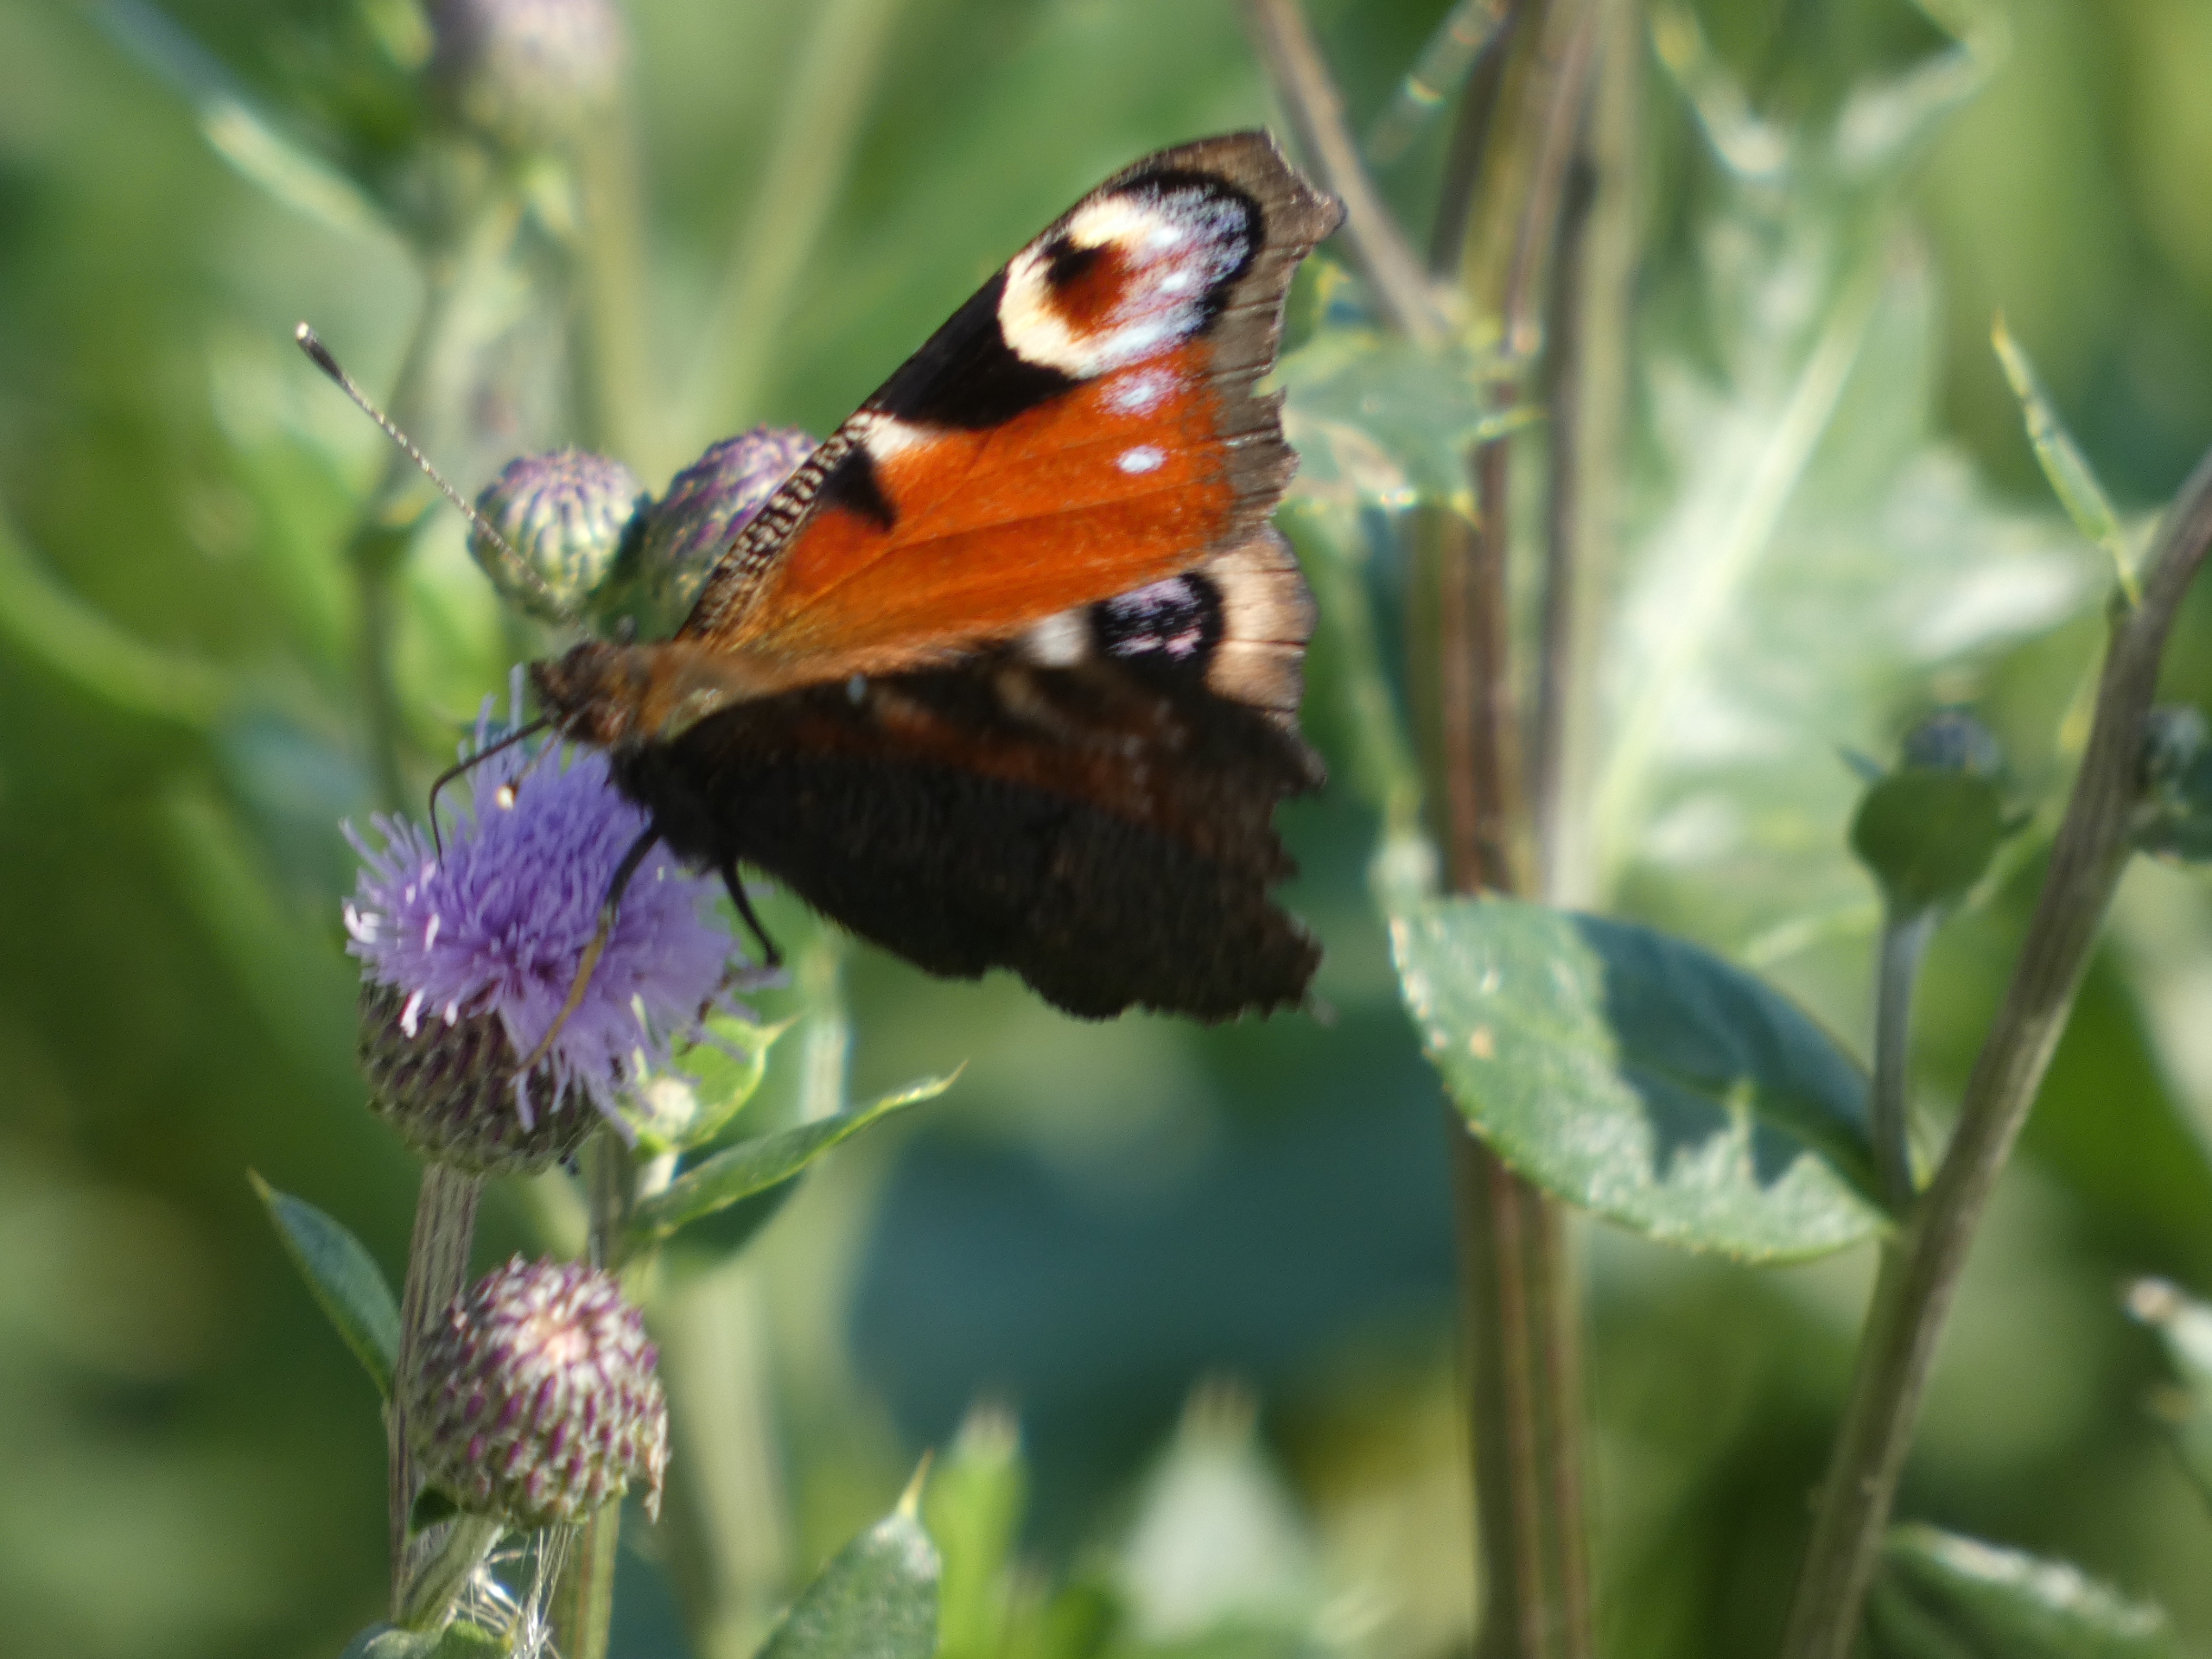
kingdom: Animalia
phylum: Arthropoda
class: Insecta
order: Lepidoptera
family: Nymphalidae
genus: Aglais
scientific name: Aglais io
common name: Dagpåfugleøje
